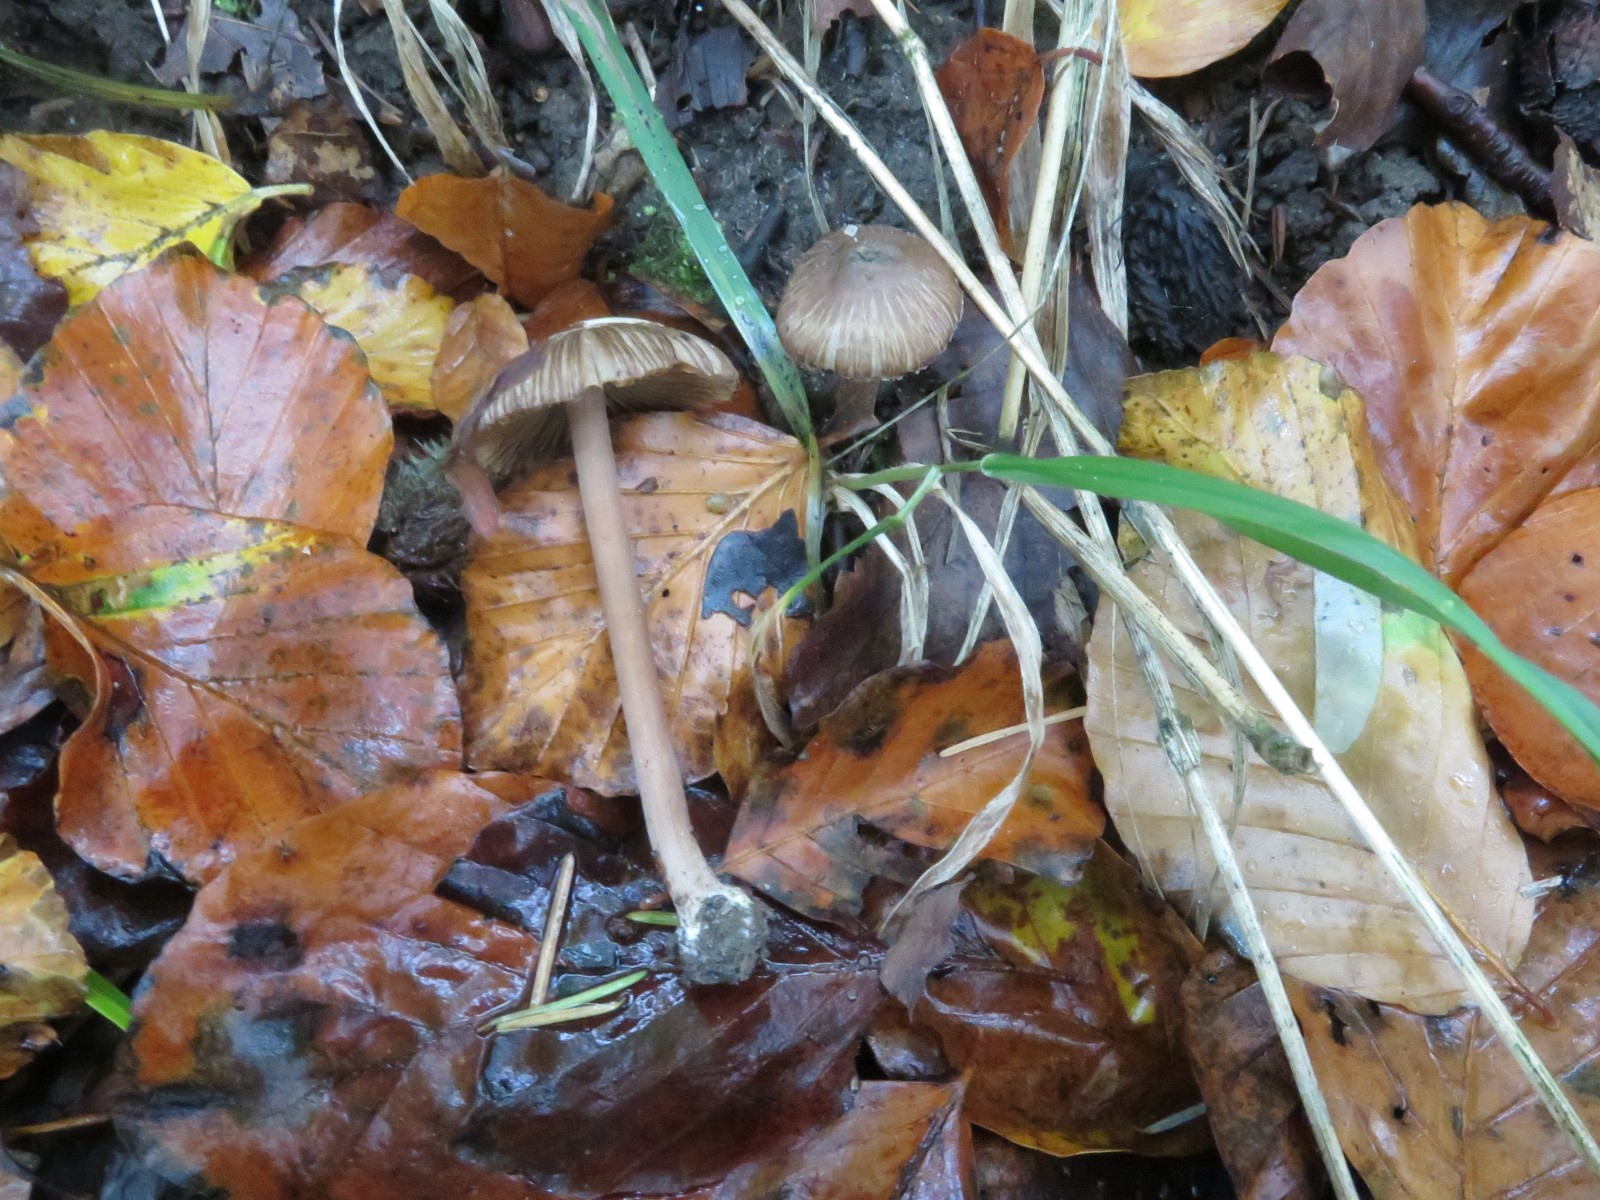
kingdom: Fungi
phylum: Basidiomycota
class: Agaricomycetes
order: Agaricales
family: Inocybaceae
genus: Inocybe
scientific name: Inocybe
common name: trævlhat
